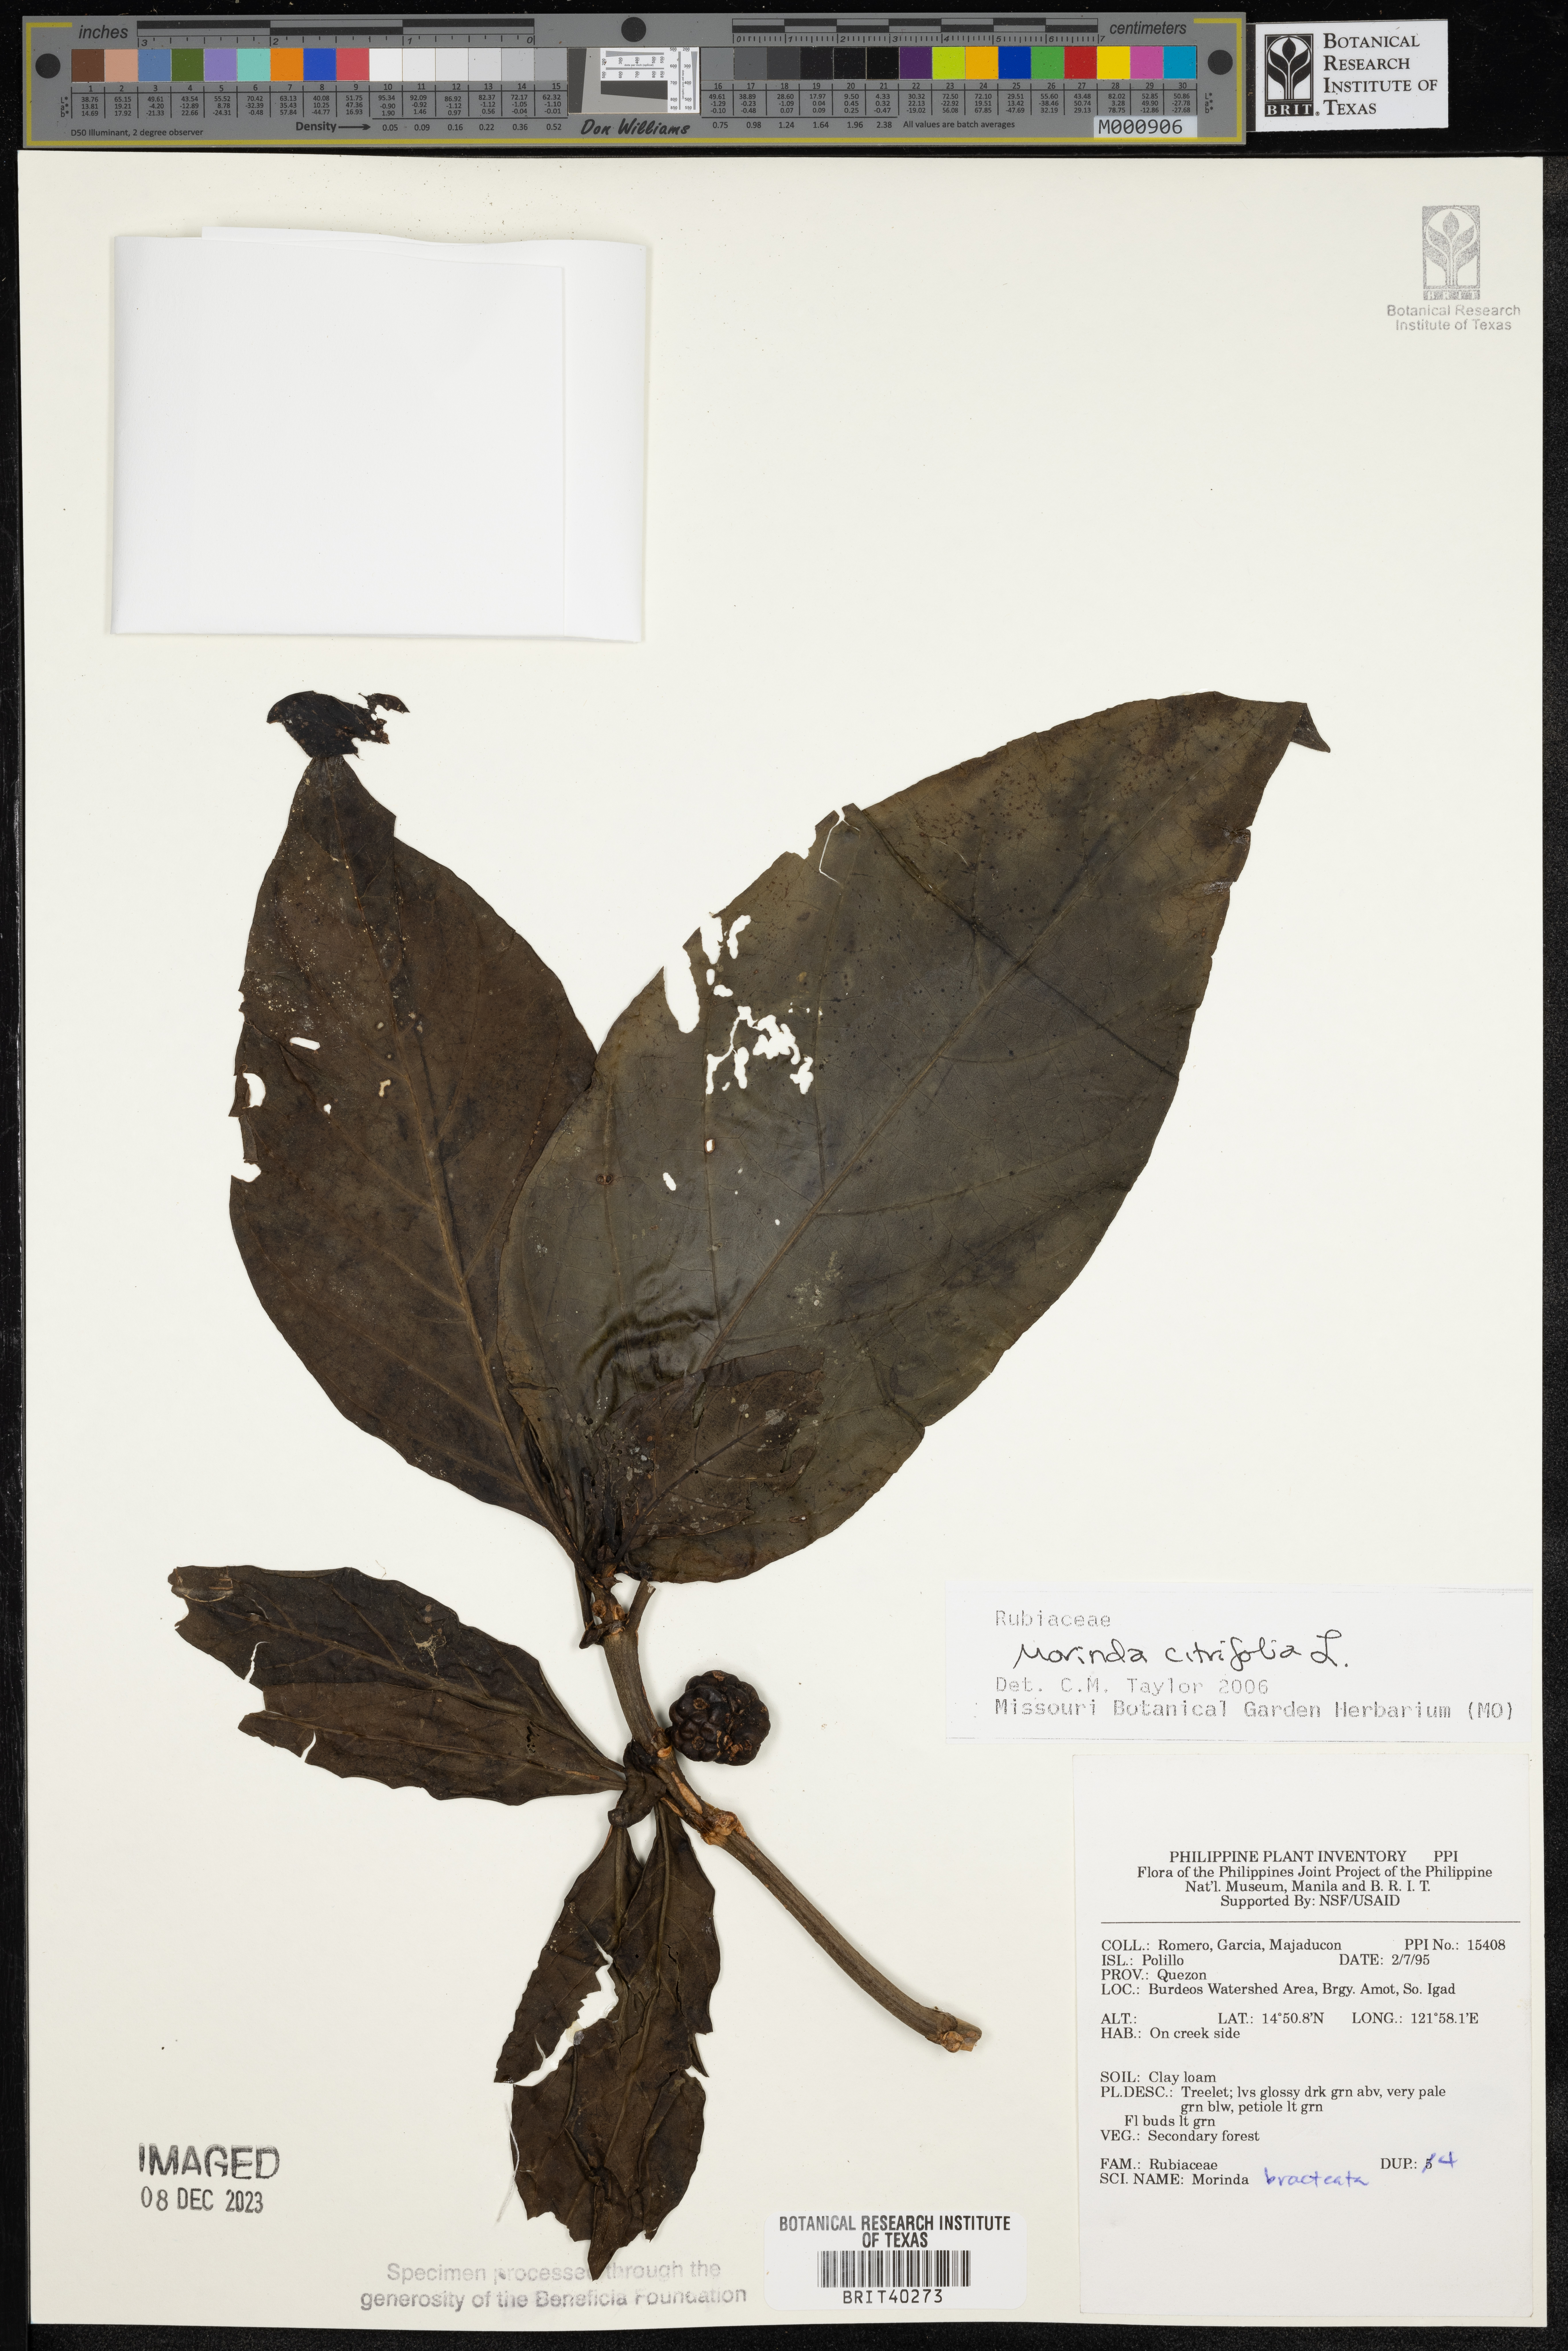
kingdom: Plantae
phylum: Tracheophyta
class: Magnoliopsida
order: Gentianales
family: Rubiaceae
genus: Morinda
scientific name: Morinda citrifolia
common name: Indian-mulberry
